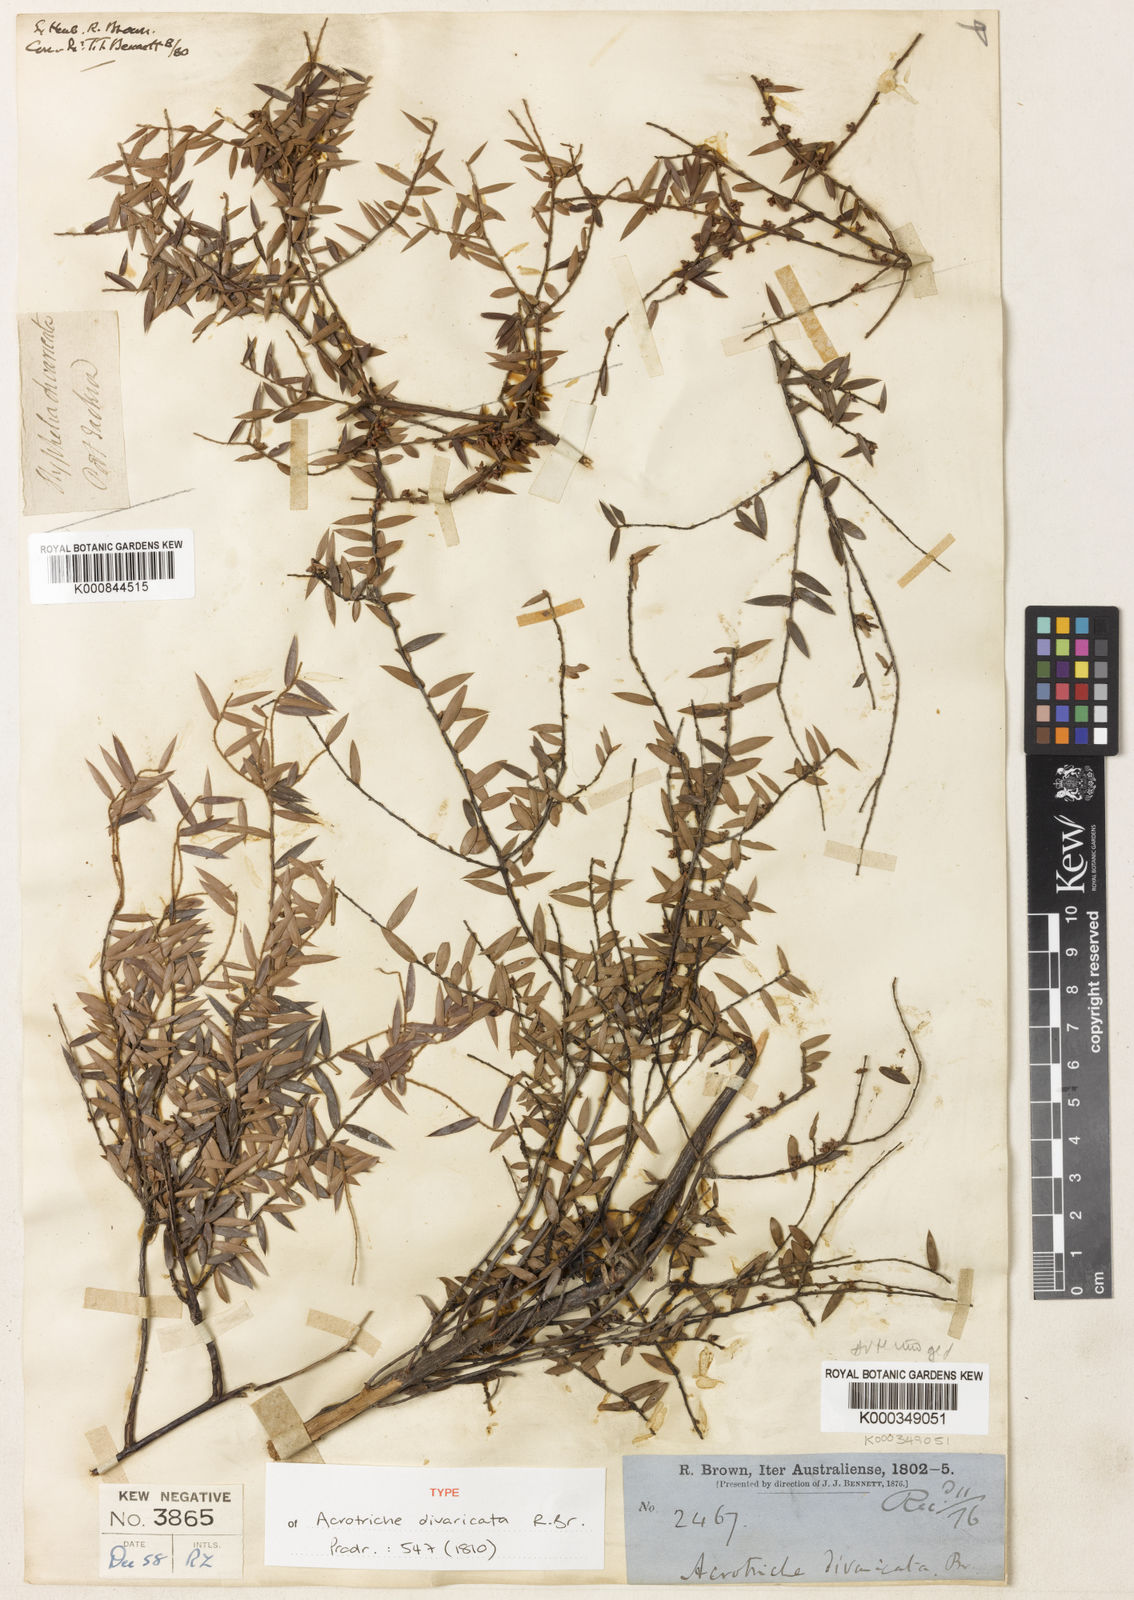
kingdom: Plantae
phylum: Tracheophyta
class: Magnoliopsida
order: Ericales
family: Ericaceae
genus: Acrotriche
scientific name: Acrotriche divaricata
